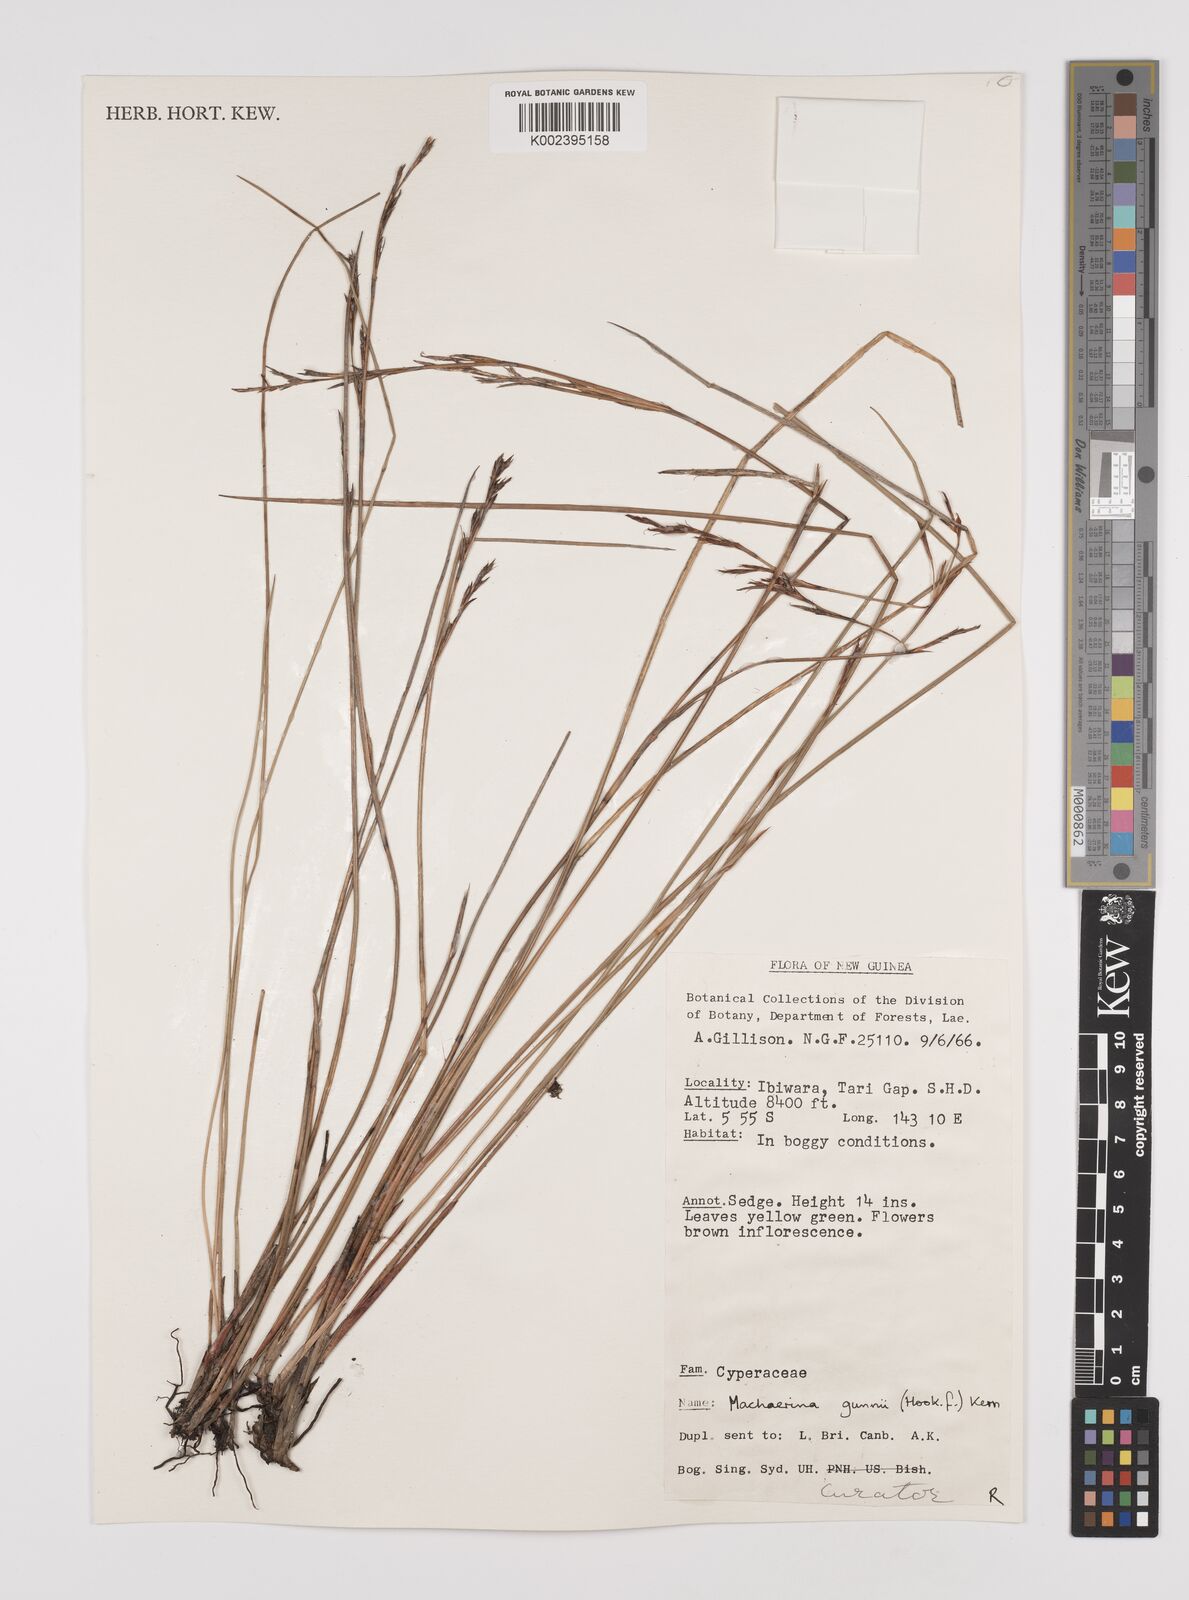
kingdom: Plantae
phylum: Tracheophyta
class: Liliopsida
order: Poales
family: Cyperaceae
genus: Machaerina
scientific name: Machaerina gunnii
